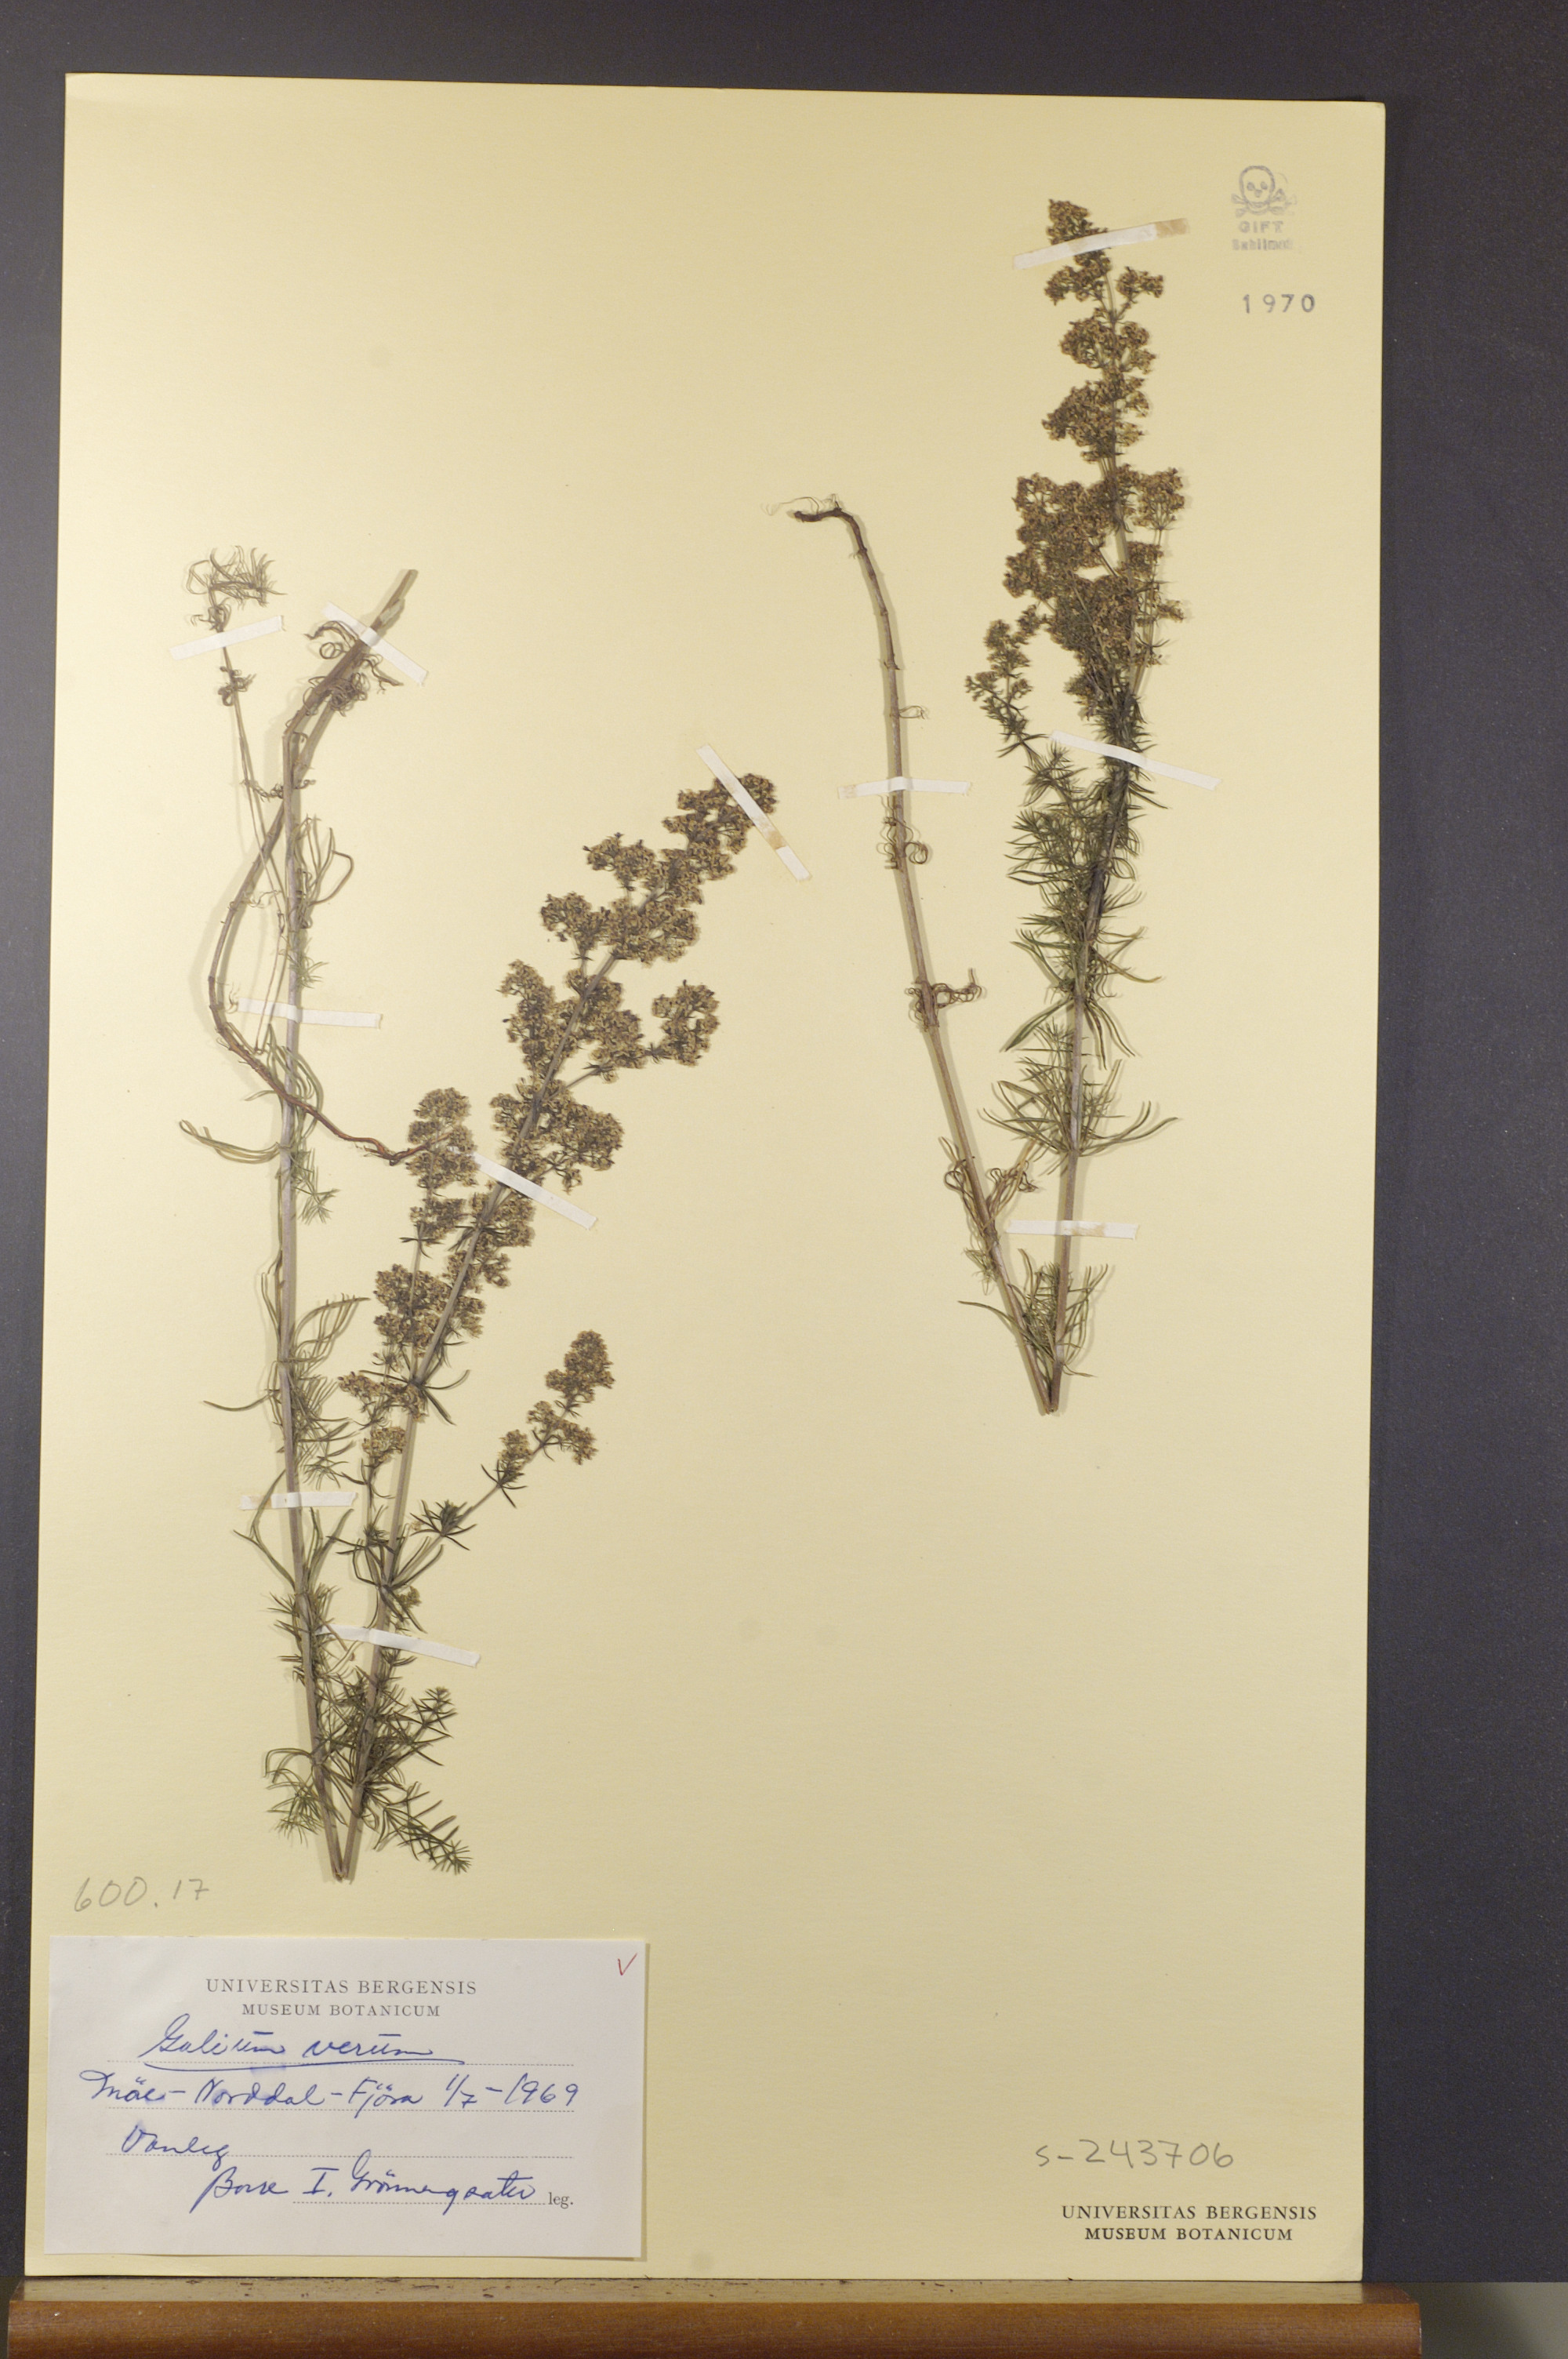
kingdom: Plantae
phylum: Tracheophyta
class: Magnoliopsida
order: Gentianales
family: Rubiaceae
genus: Galium
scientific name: Galium verum
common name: Lady's bedstraw
